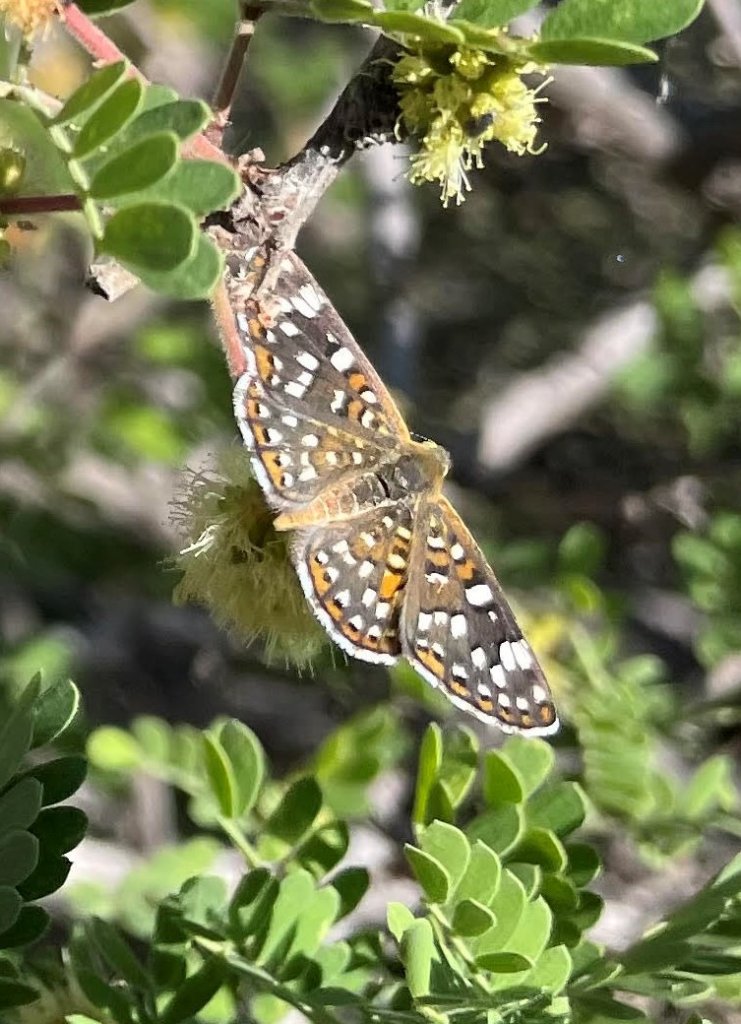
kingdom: Animalia
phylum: Arthropoda
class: Insecta
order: Lepidoptera
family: Riodinidae
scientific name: Riodinidae
